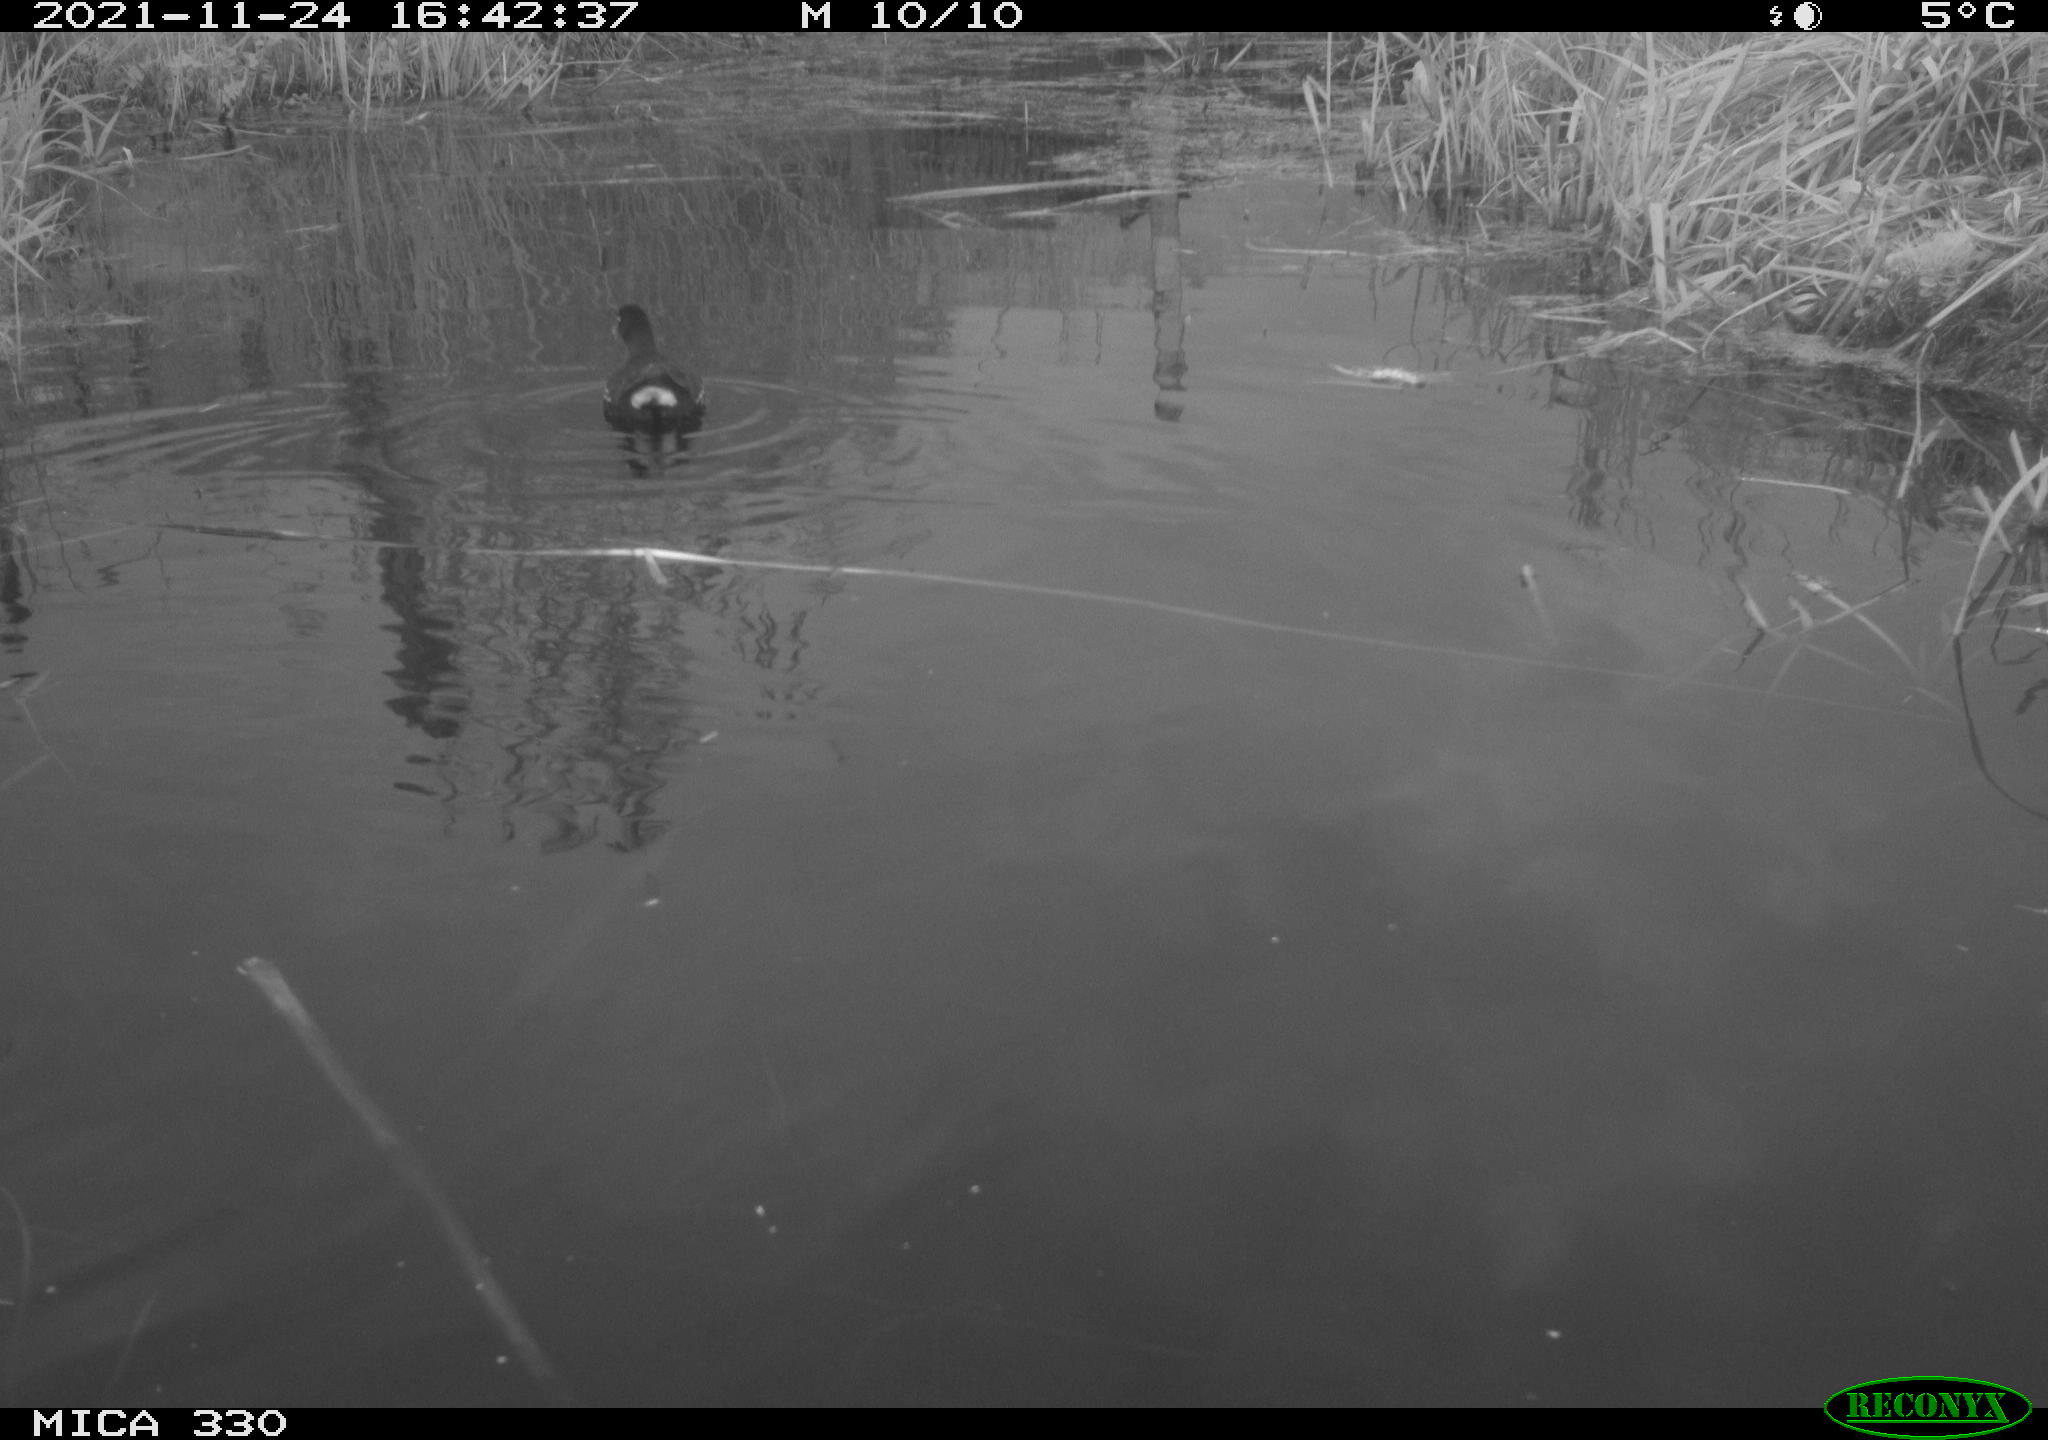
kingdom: Animalia
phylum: Chordata
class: Aves
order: Gruiformes
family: Rallidae
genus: Gallinula
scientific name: Gallinula chloropus
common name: Common moorhen
